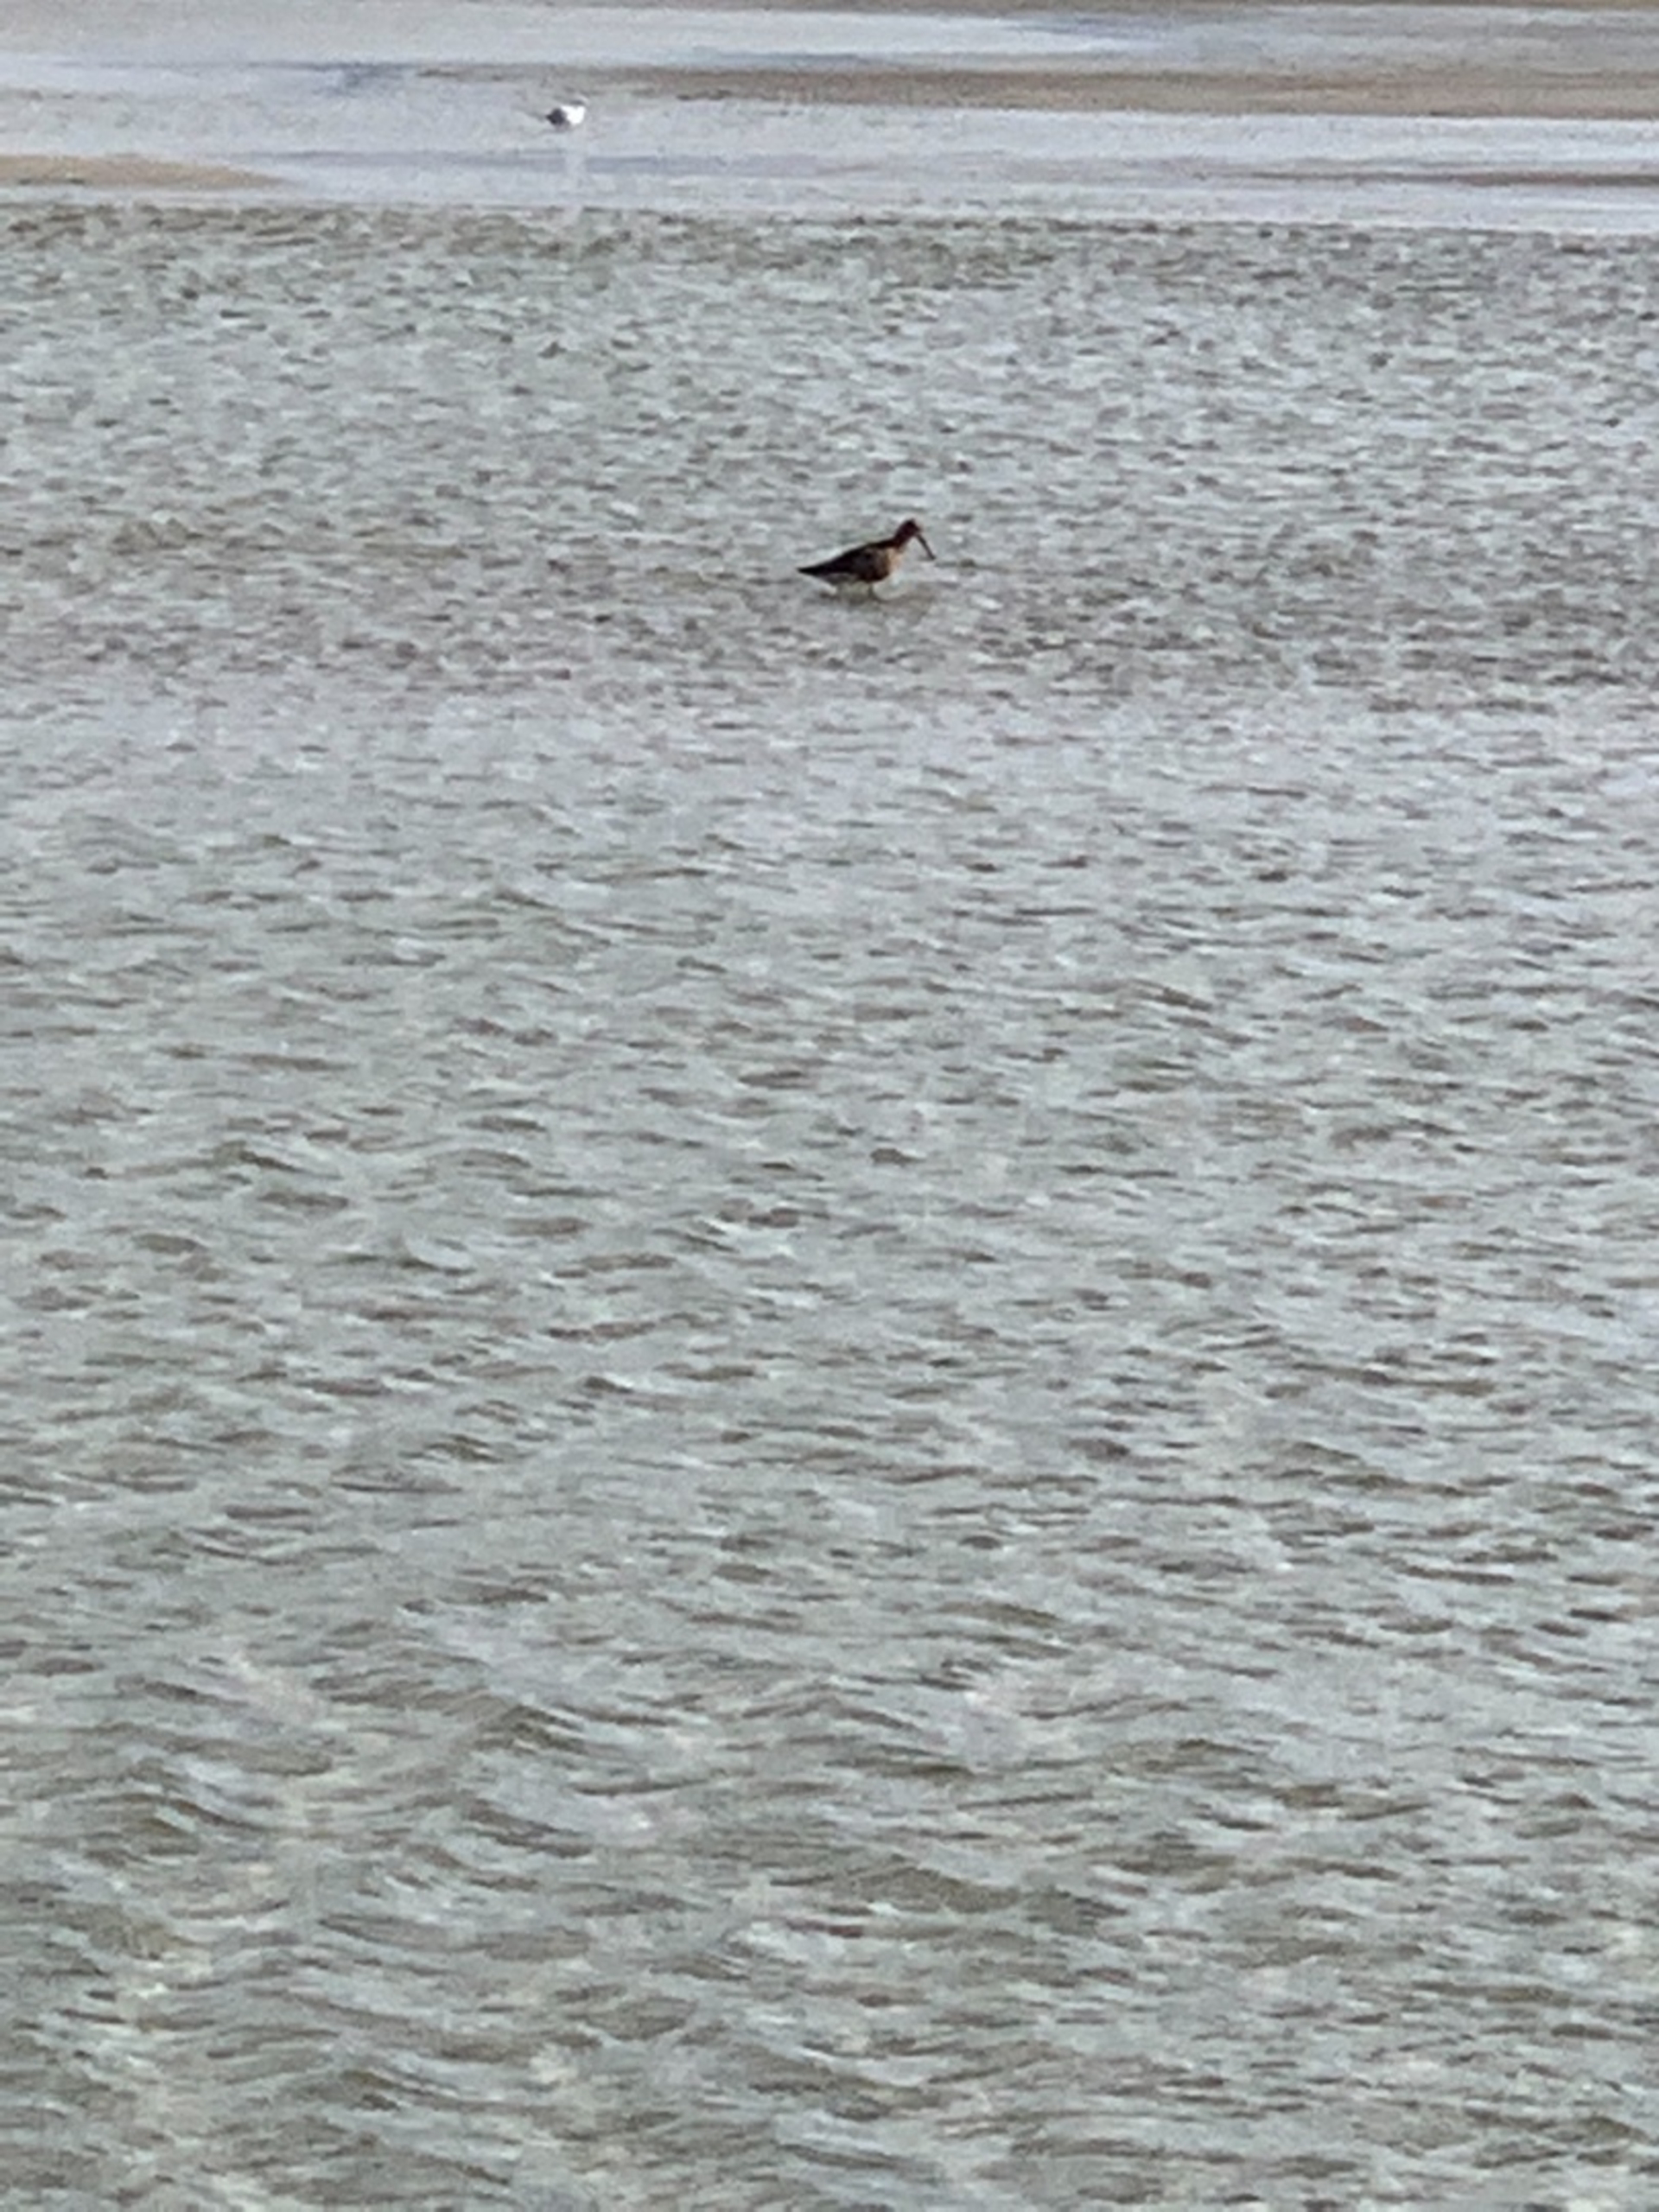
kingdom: Animalia
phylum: Chordata
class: Aves
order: Charadriiformes
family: Scolopacidae
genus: Calidris
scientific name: Calidris ferruginea
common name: Krumnæbbet ryle
